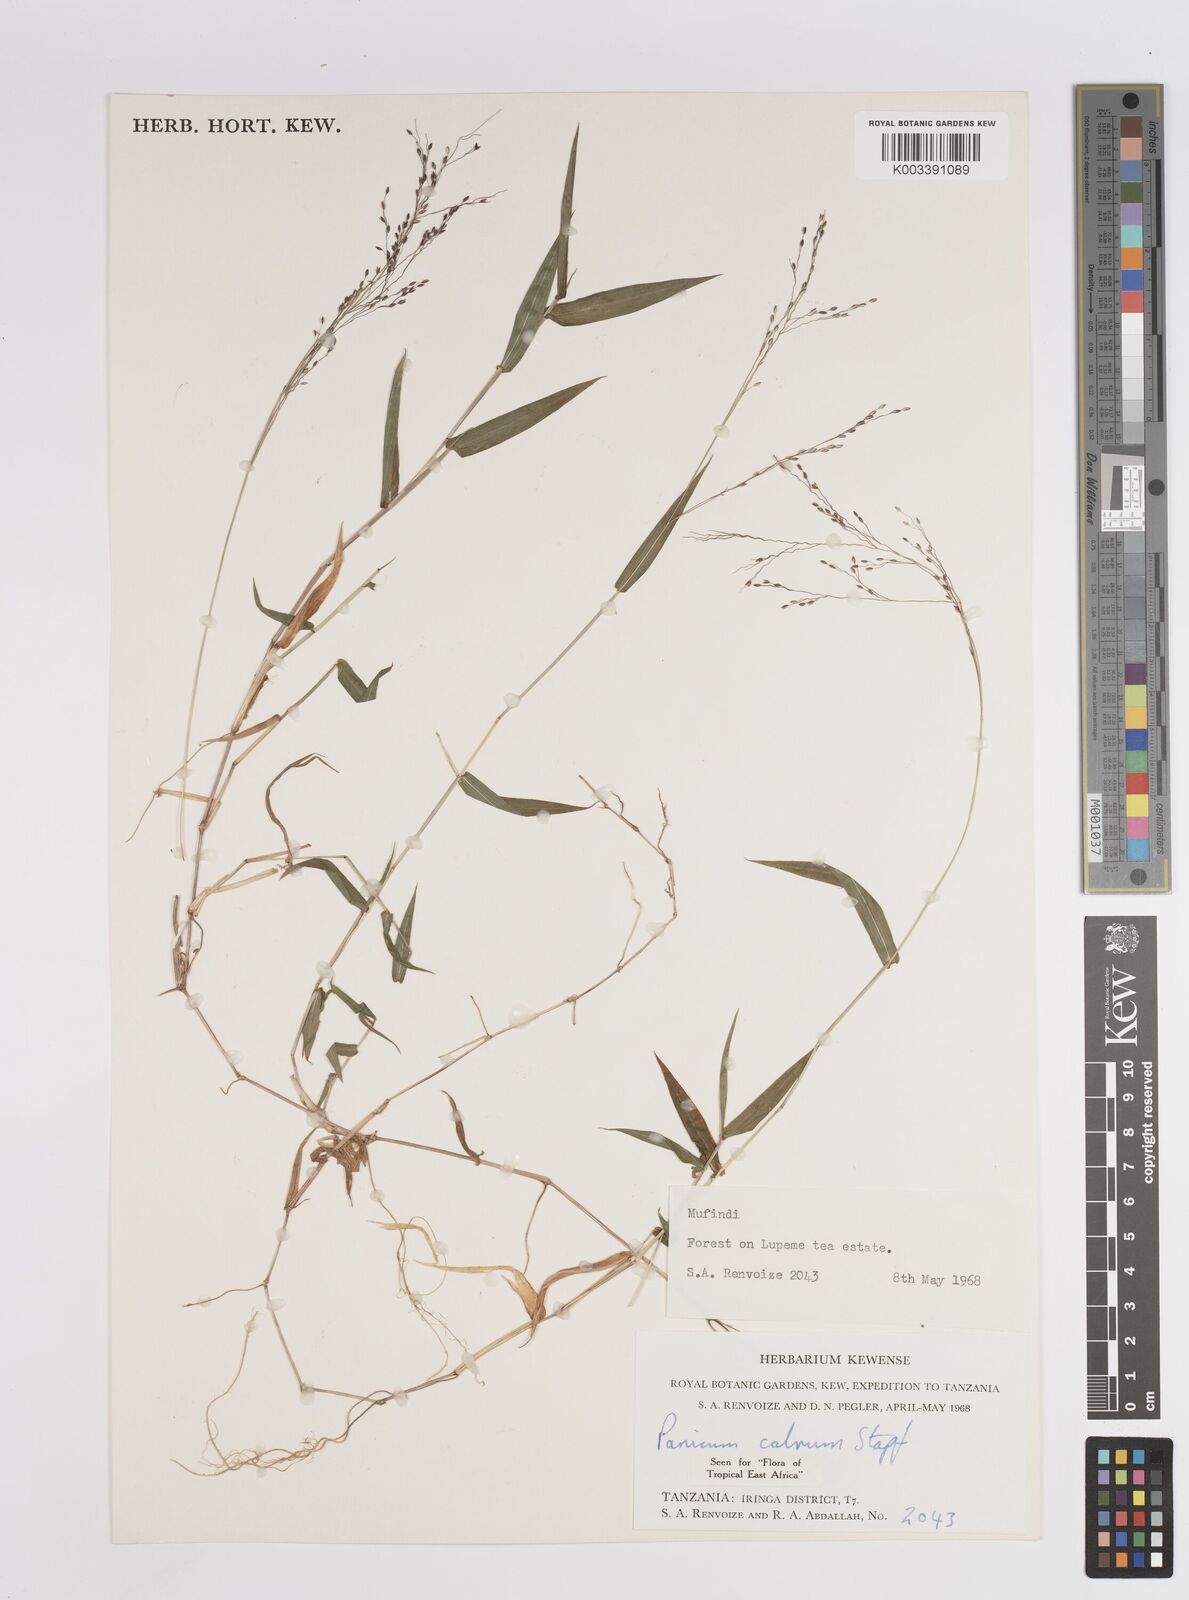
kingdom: Plantae
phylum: Tracheophyta
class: Liliopsida
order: Poales
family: Poaceae
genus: Panicum
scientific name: Panicum calvum
